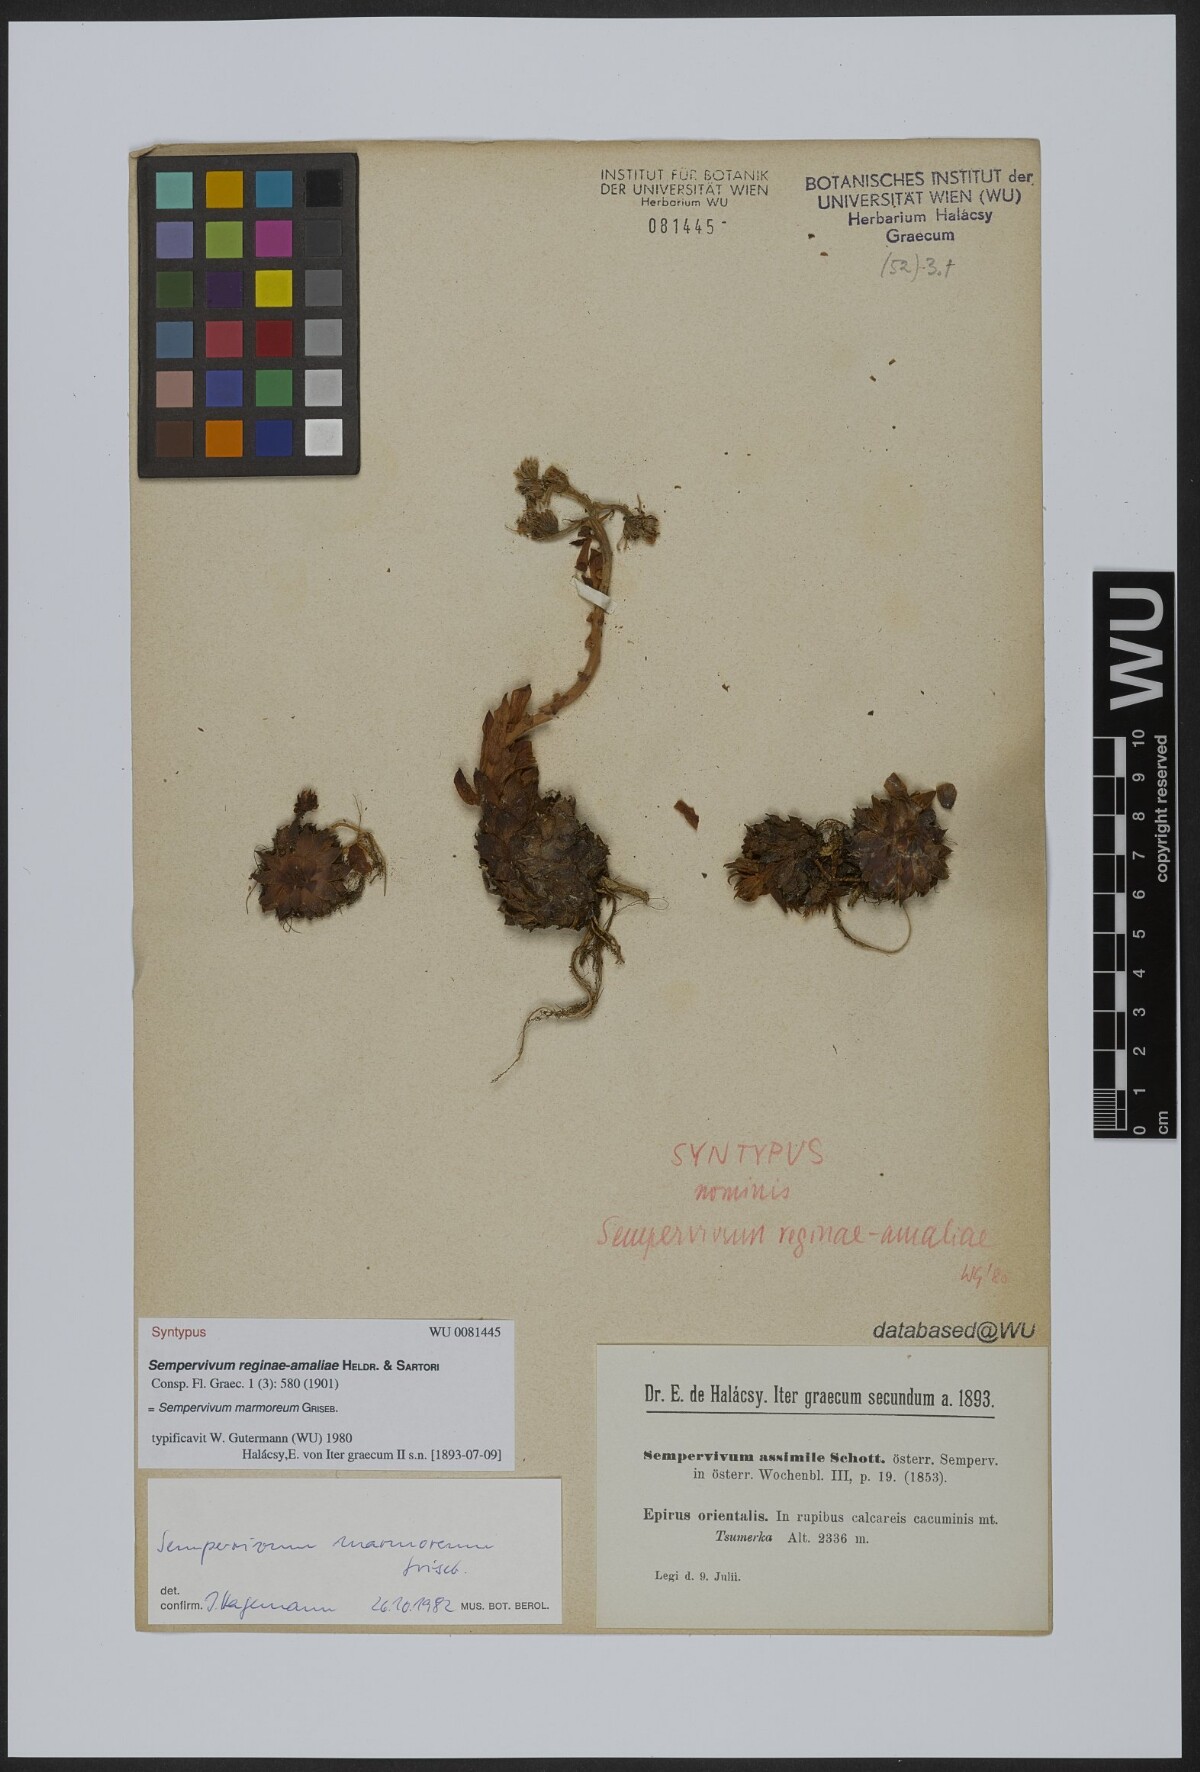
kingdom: Plantae
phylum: Tracheophyta
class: Magnoliopsida
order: Saxifragales
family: Crassulaceae
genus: Sempervivum
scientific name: Sempervivum verereginae-amaliae
